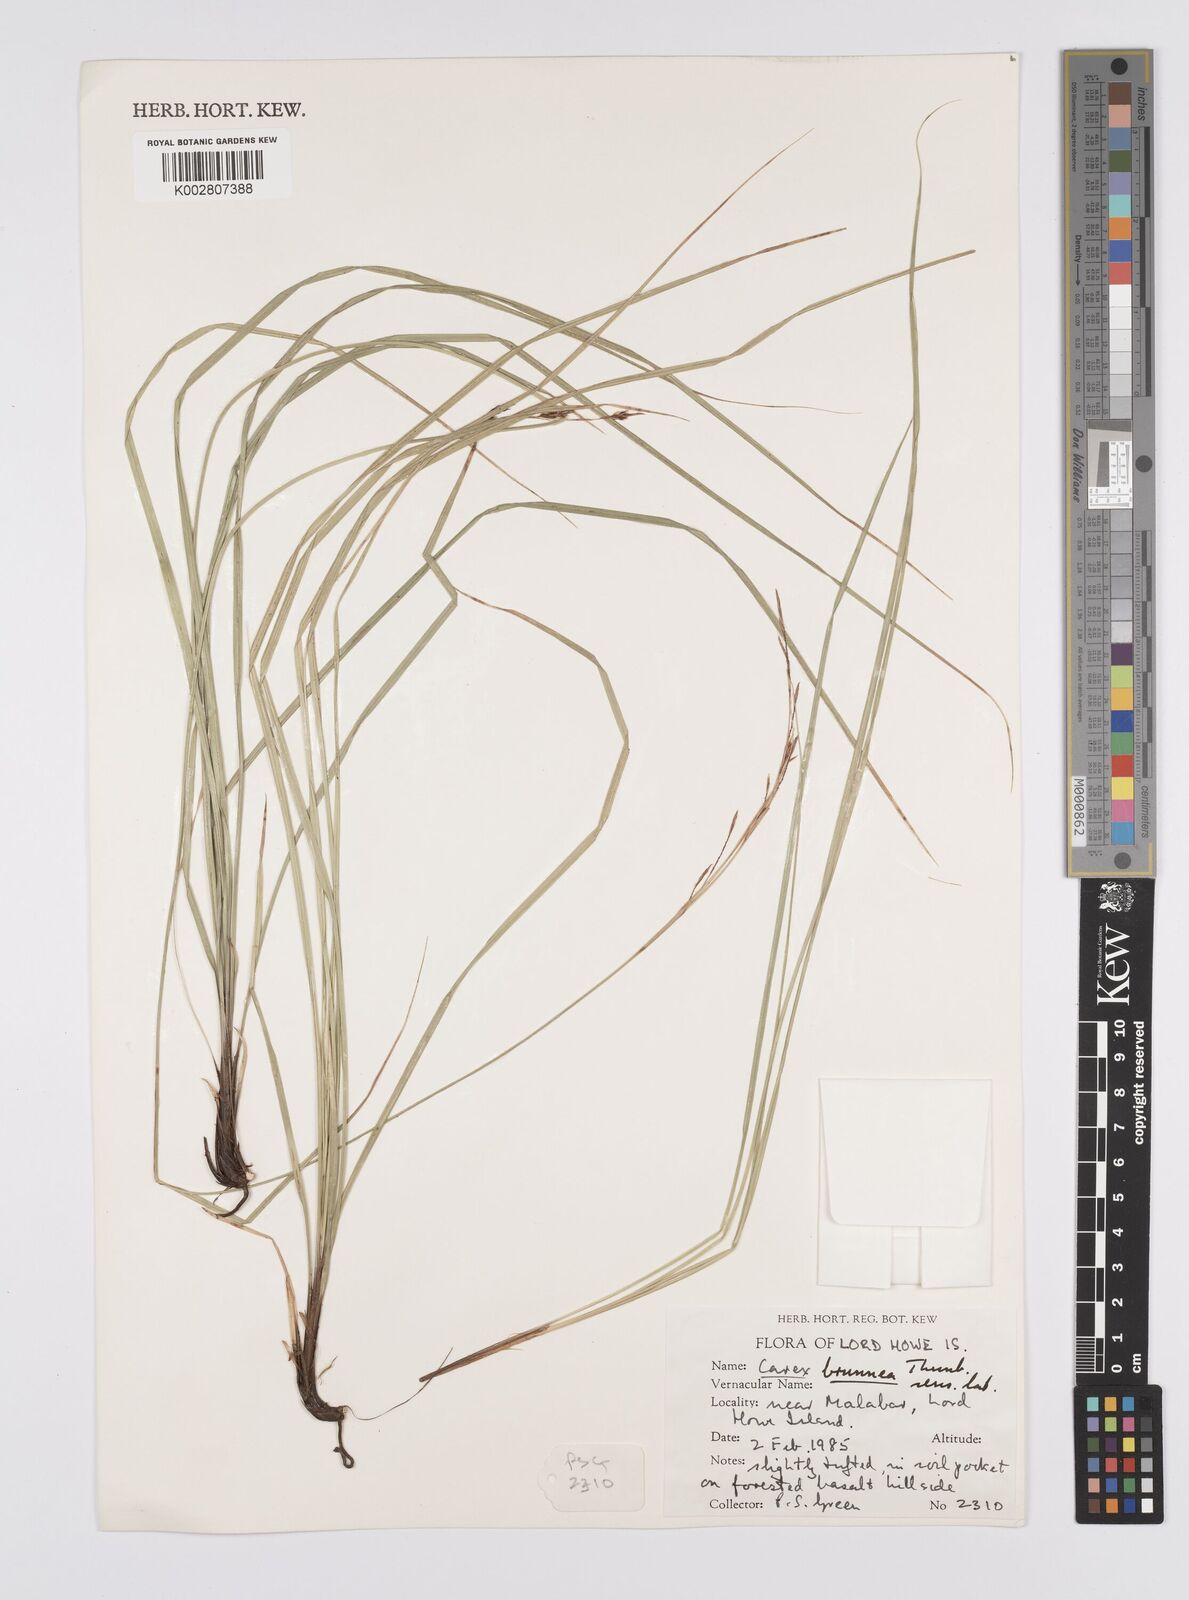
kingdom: Plantae
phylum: Tracheophyta
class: Liliopsida
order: Poales
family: Cyperaceae
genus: Carex
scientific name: Carex hattoriana
